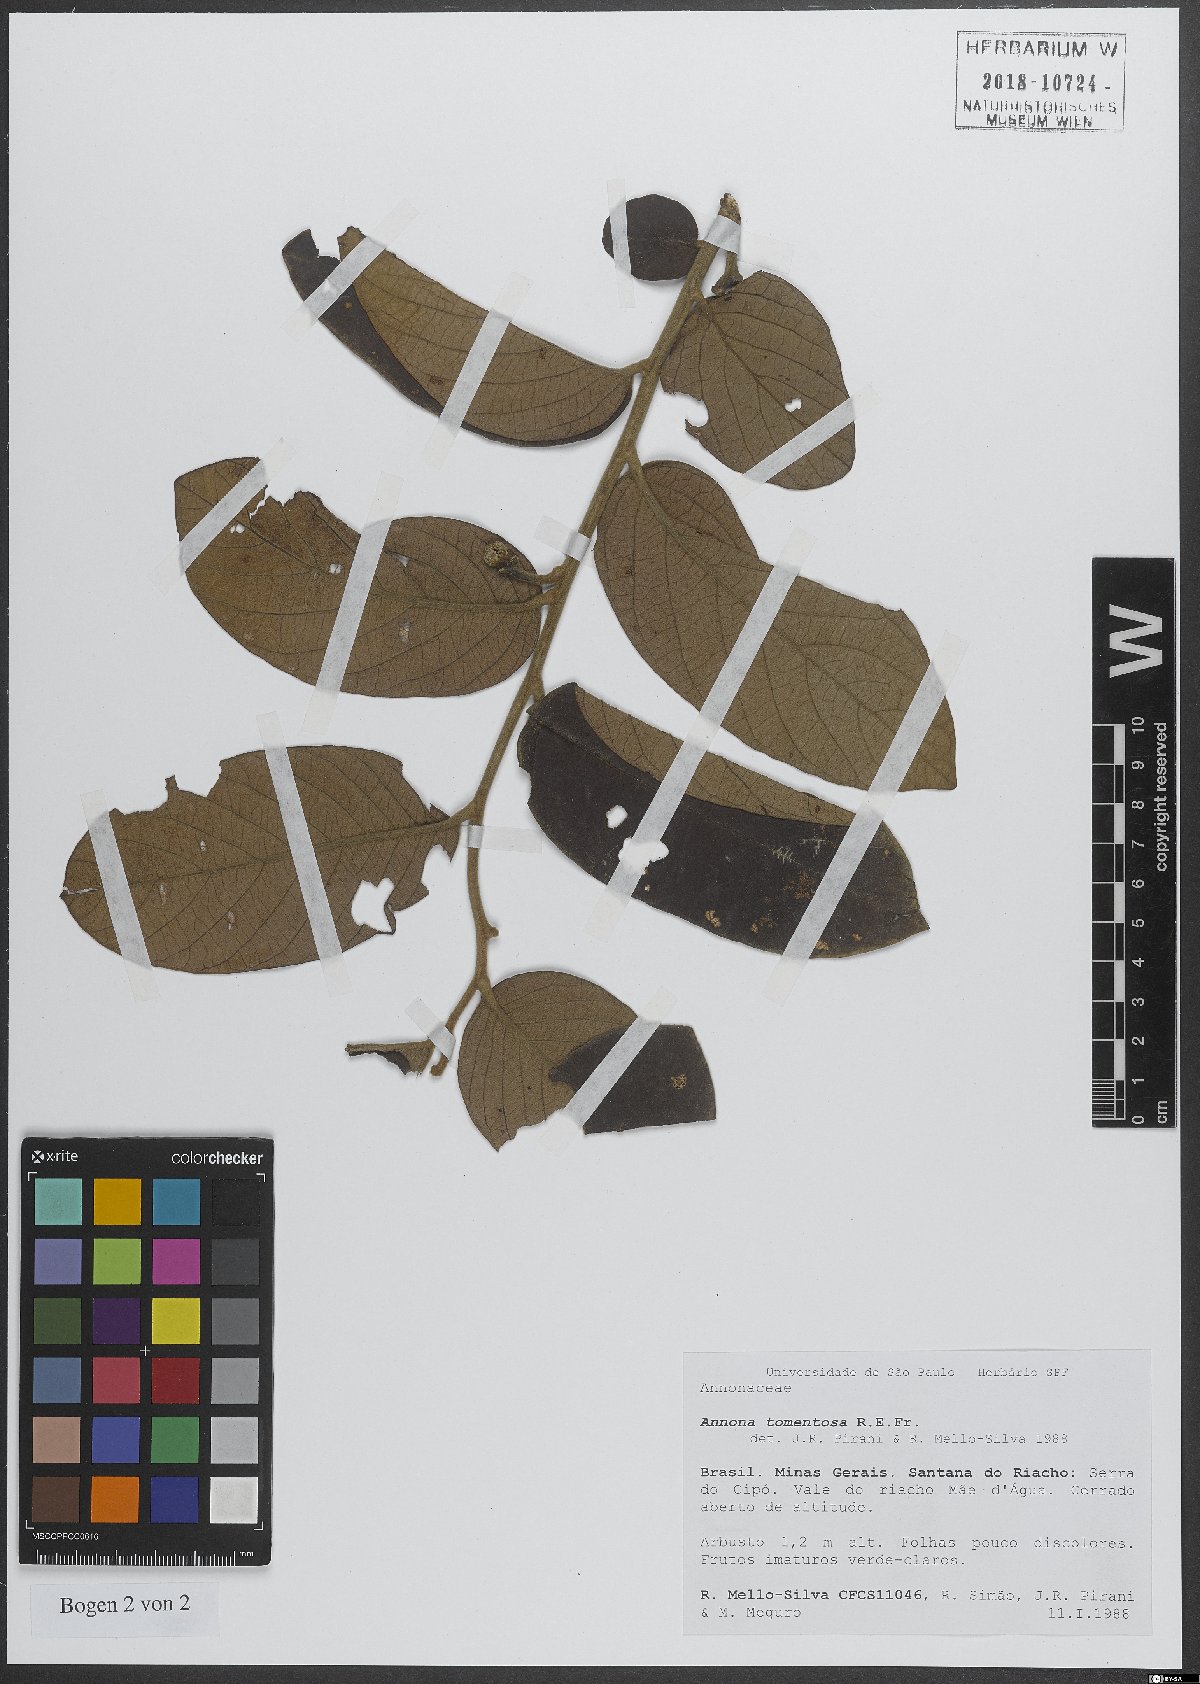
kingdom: Plantae
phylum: Tracheophyta
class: Magnoliopsida
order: Magnoliales
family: Annonaceae
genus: Annona
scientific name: Annona tomentosa
